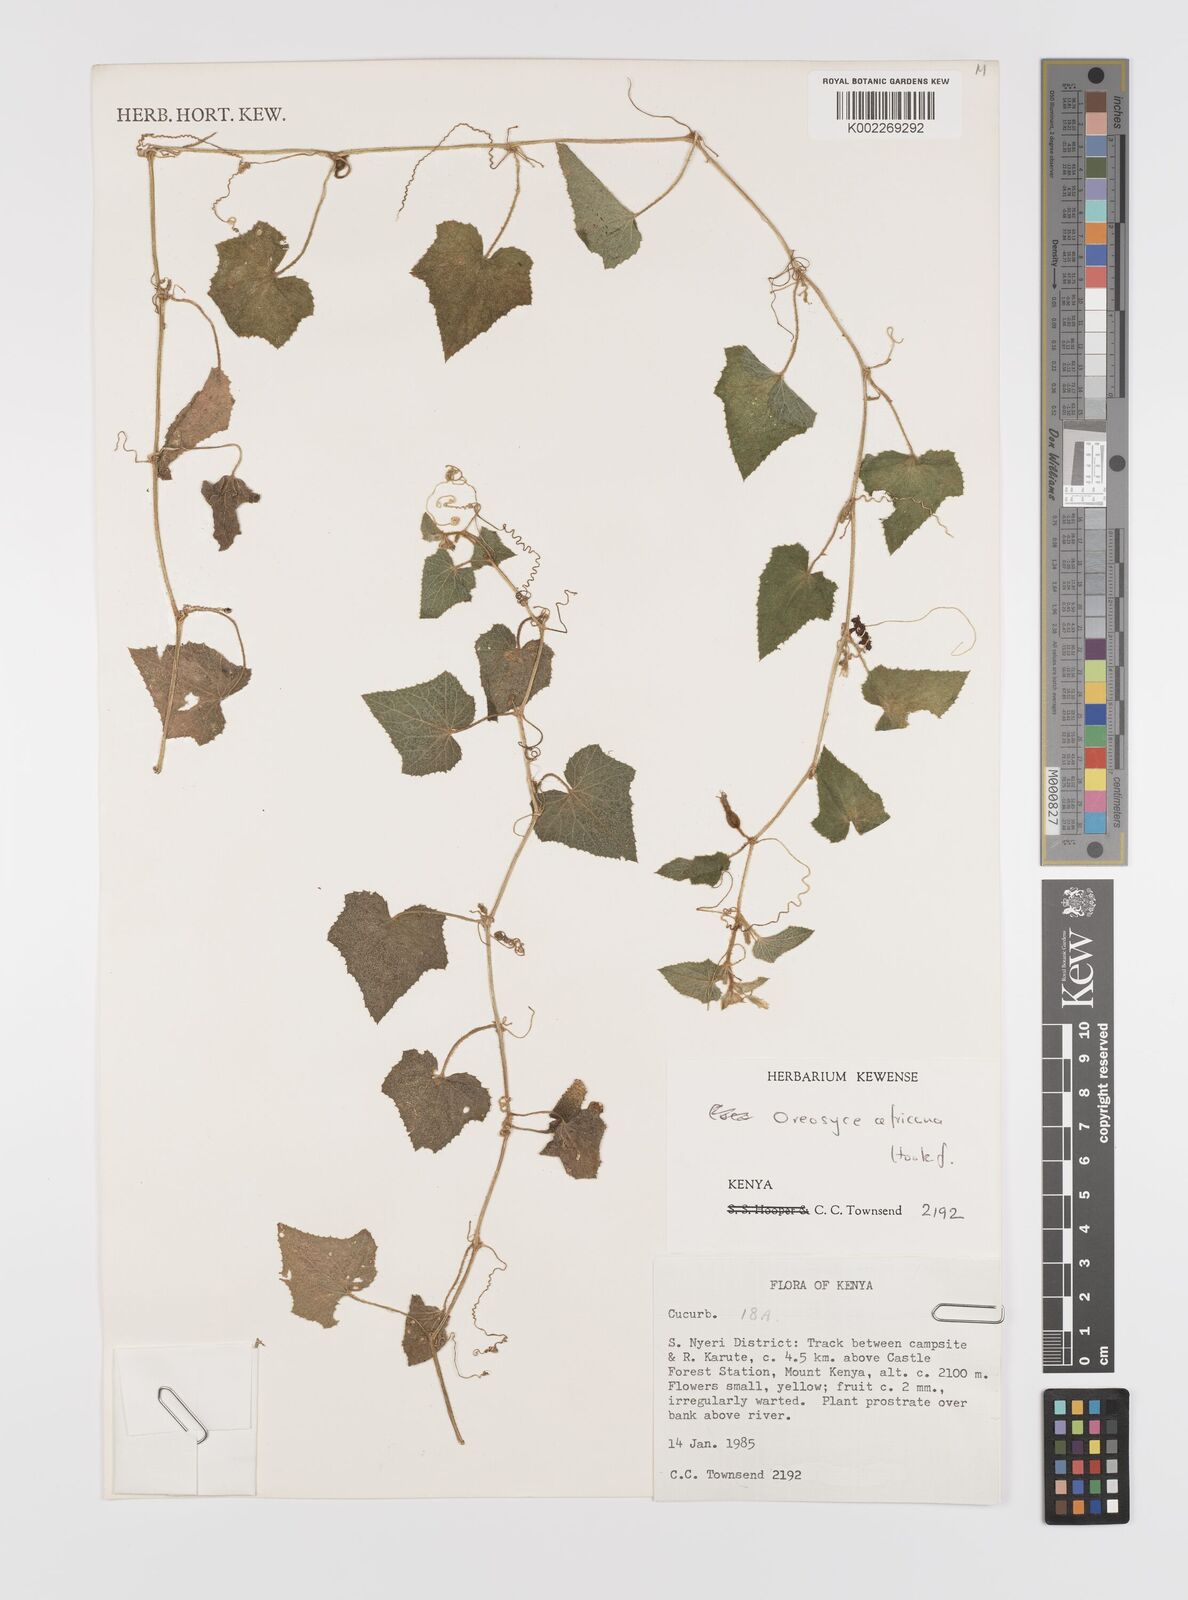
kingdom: Plantae
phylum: Tracheophyta
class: Magnoliopsida
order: Cucurbitales
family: Cucurbitaceae
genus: Cucumis
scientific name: Cucumis oreosyce
